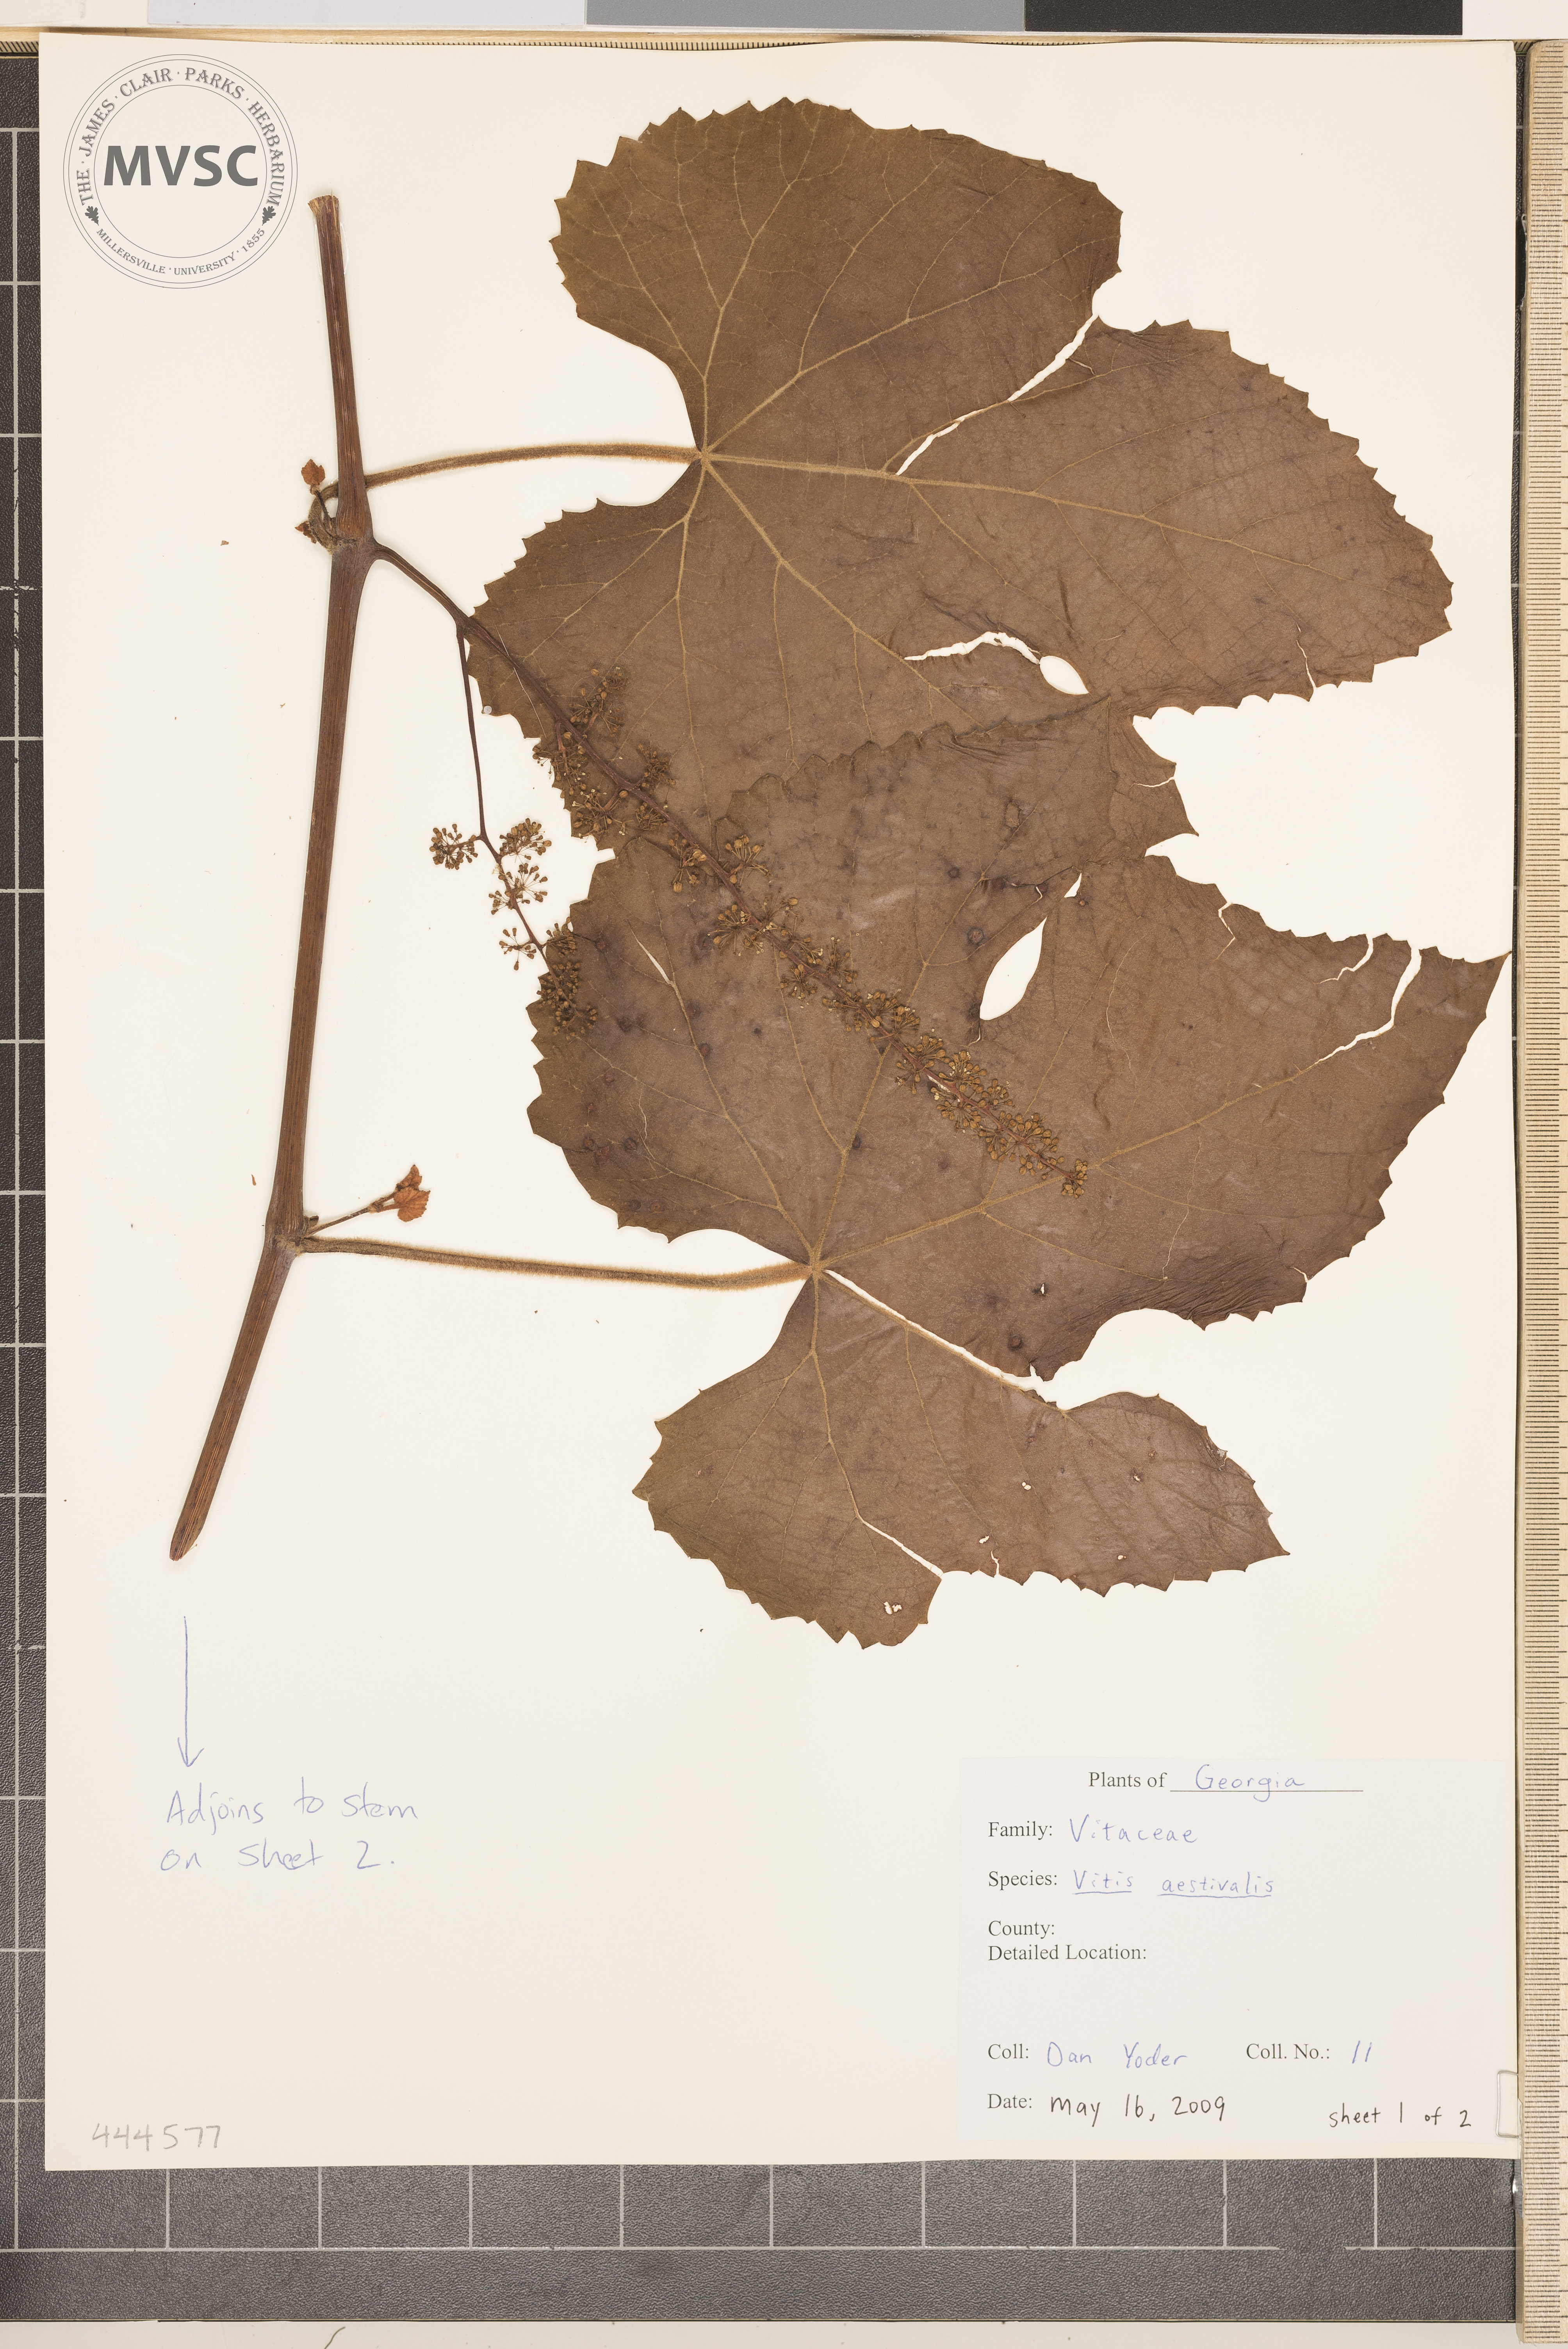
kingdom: Plantae
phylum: Tracheophyta
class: Magnoliopsida
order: Vitales
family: Vitaceae
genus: Vitis
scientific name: Vitis aestivalis
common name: Pigeon grape
